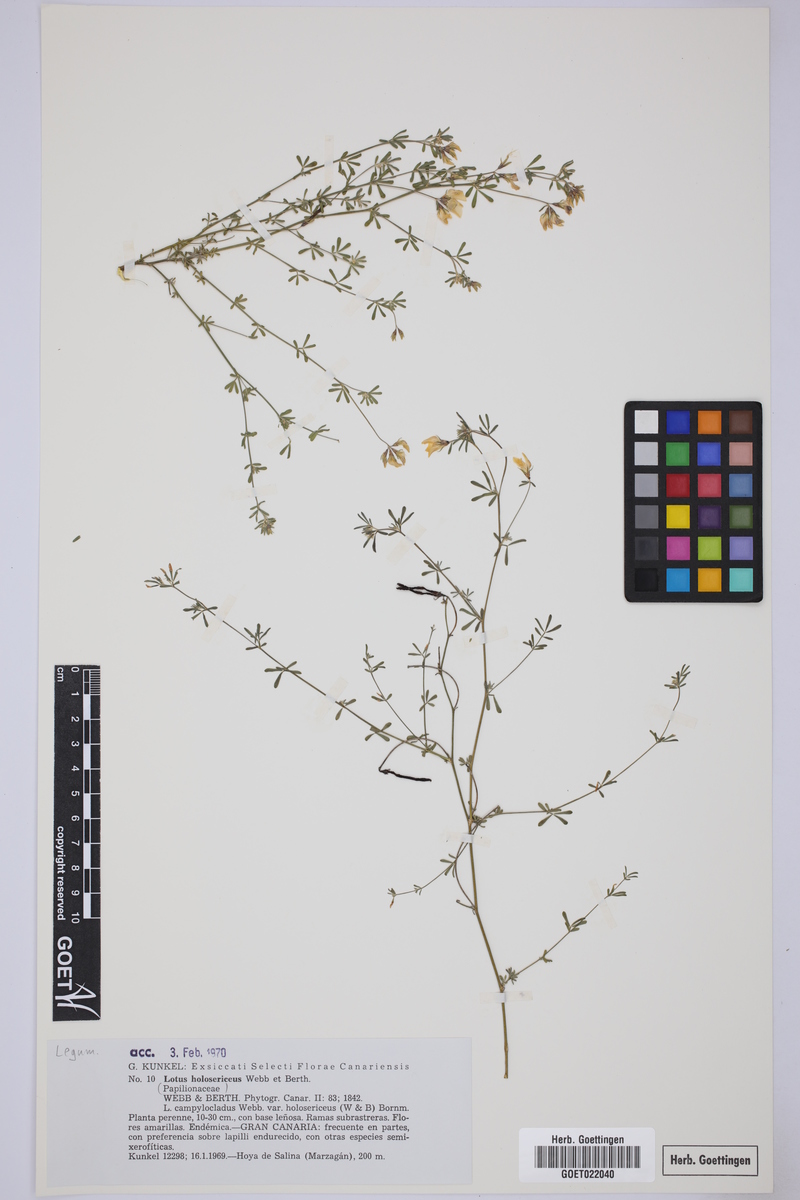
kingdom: Plantae
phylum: Tracheophyta
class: Magnoliopsida
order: Fabales
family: Fabaceae
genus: Lotus
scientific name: Lotus holosericus
